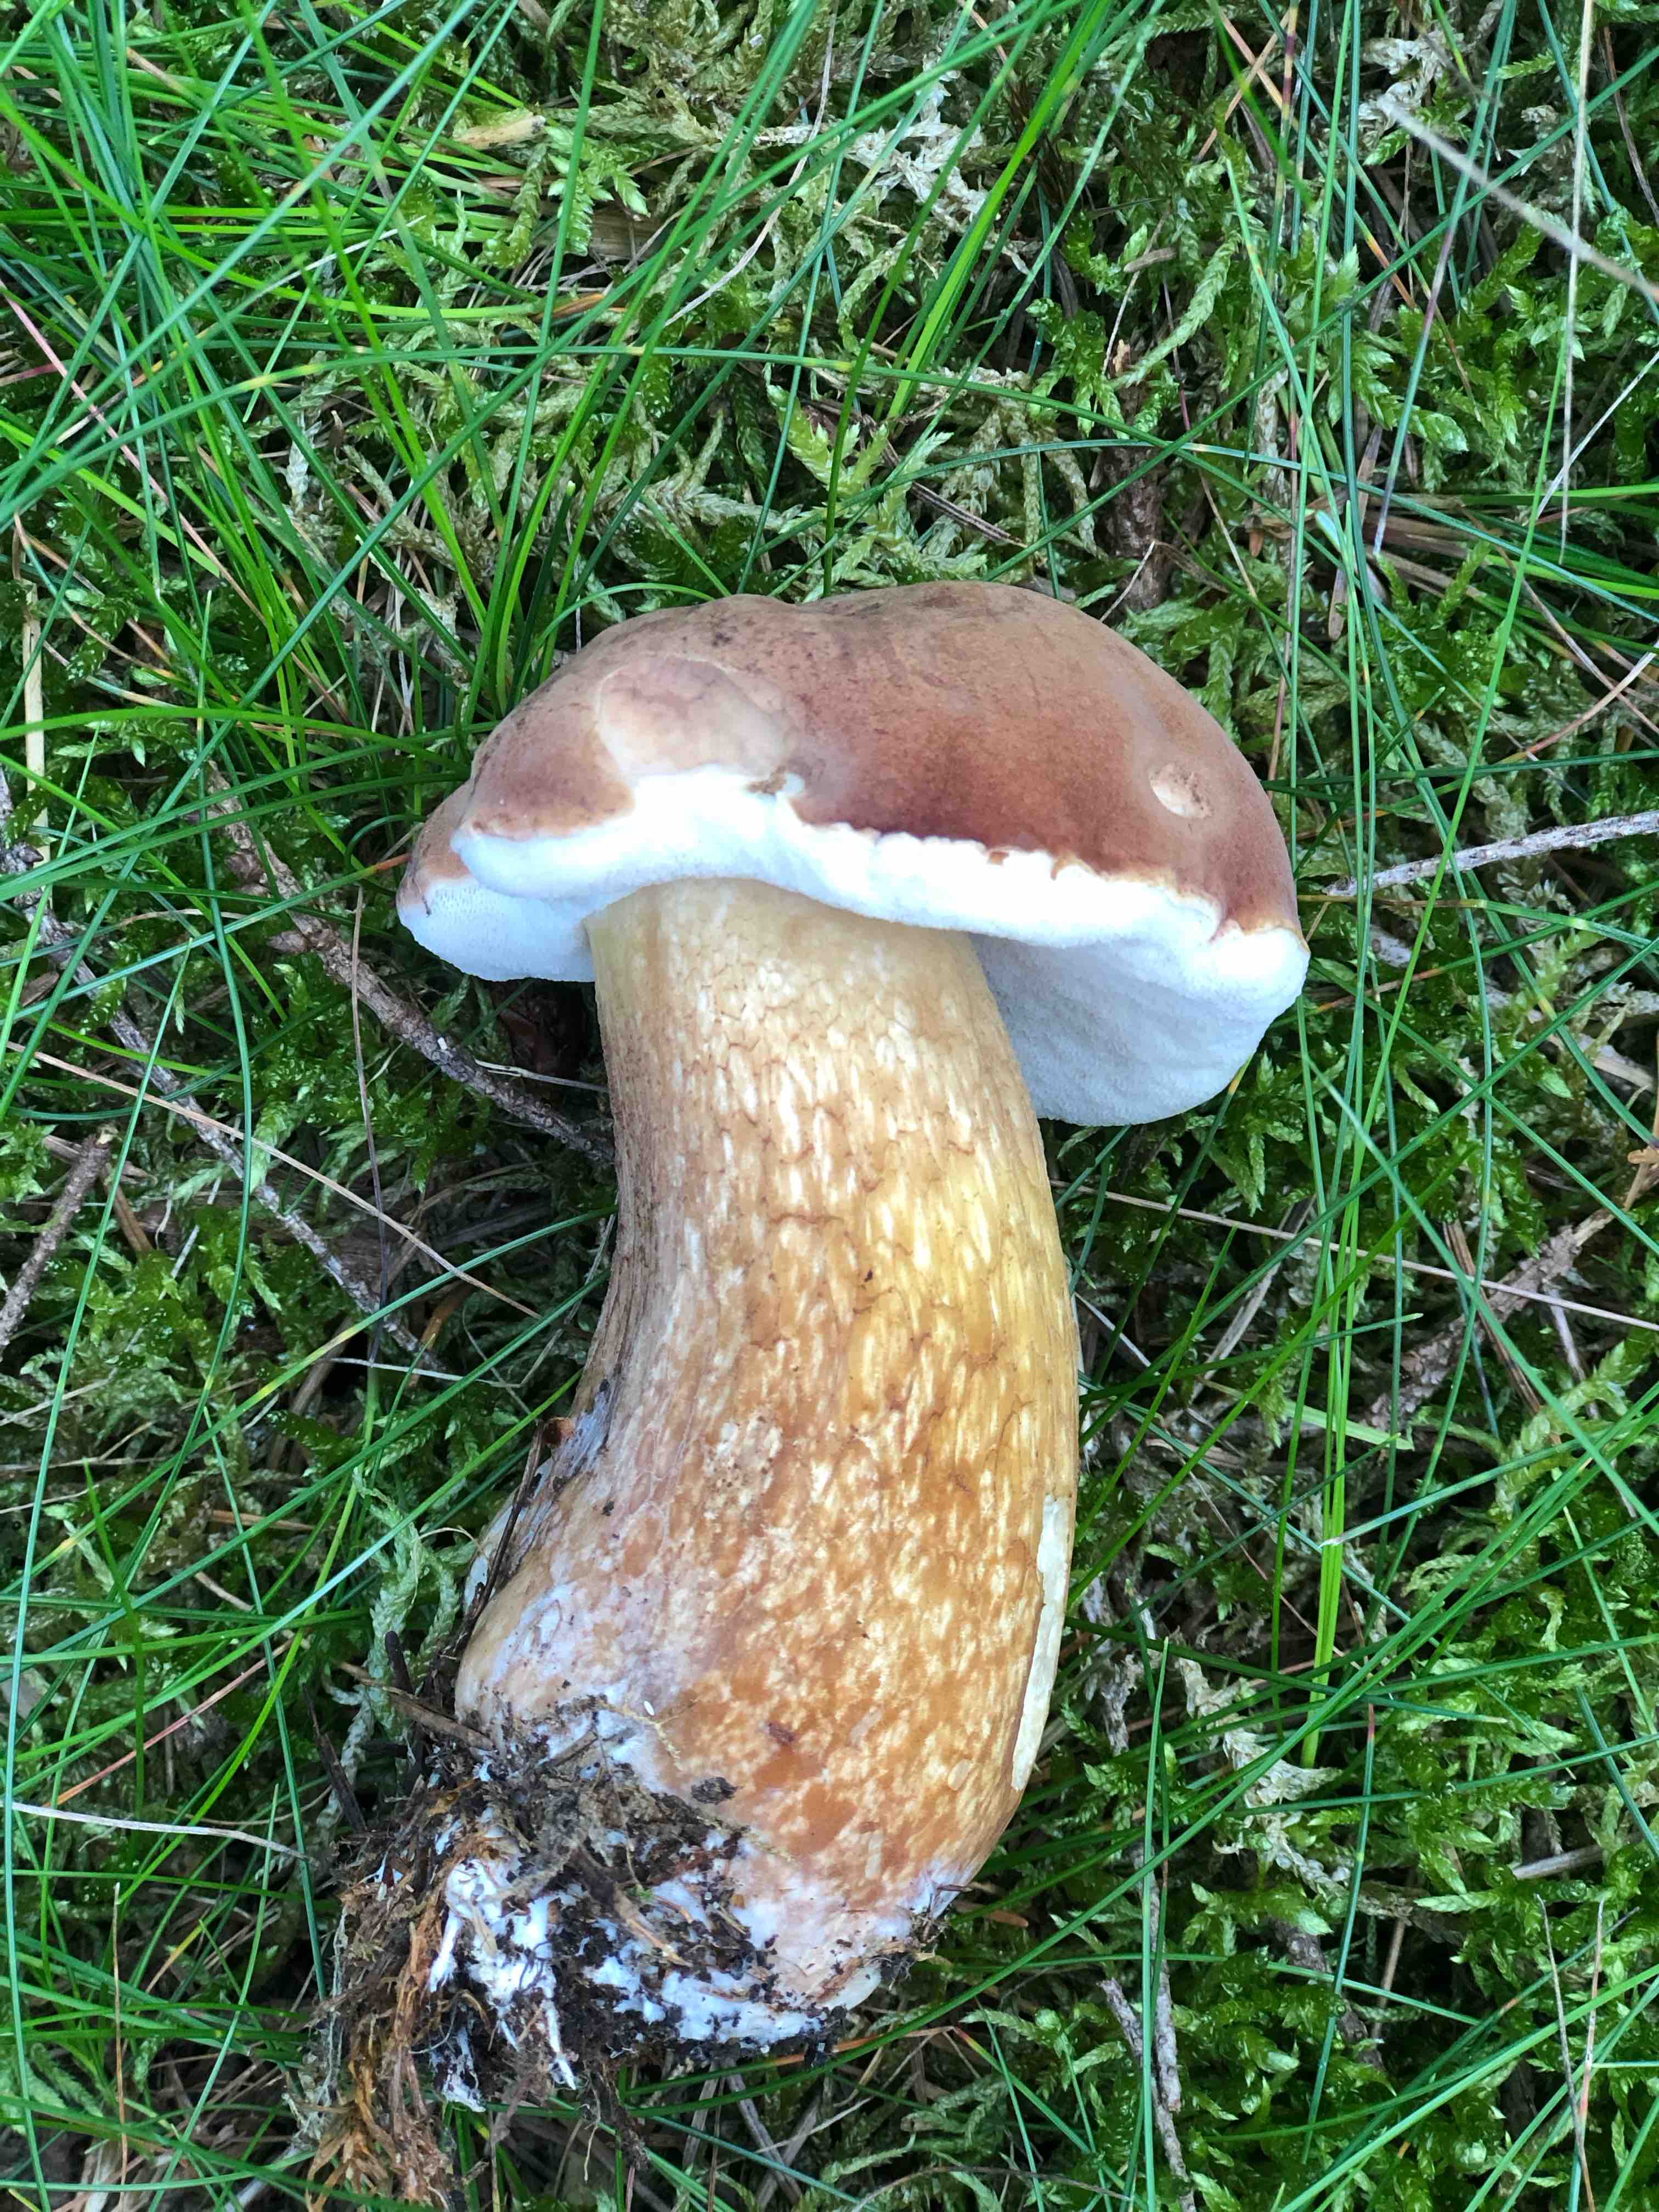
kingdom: Fungi
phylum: Basidiomycota
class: Agaricomycetes
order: Boletales
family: Boletaceae
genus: Tylopilus
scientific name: Tylopilus felleus
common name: galderørhat
